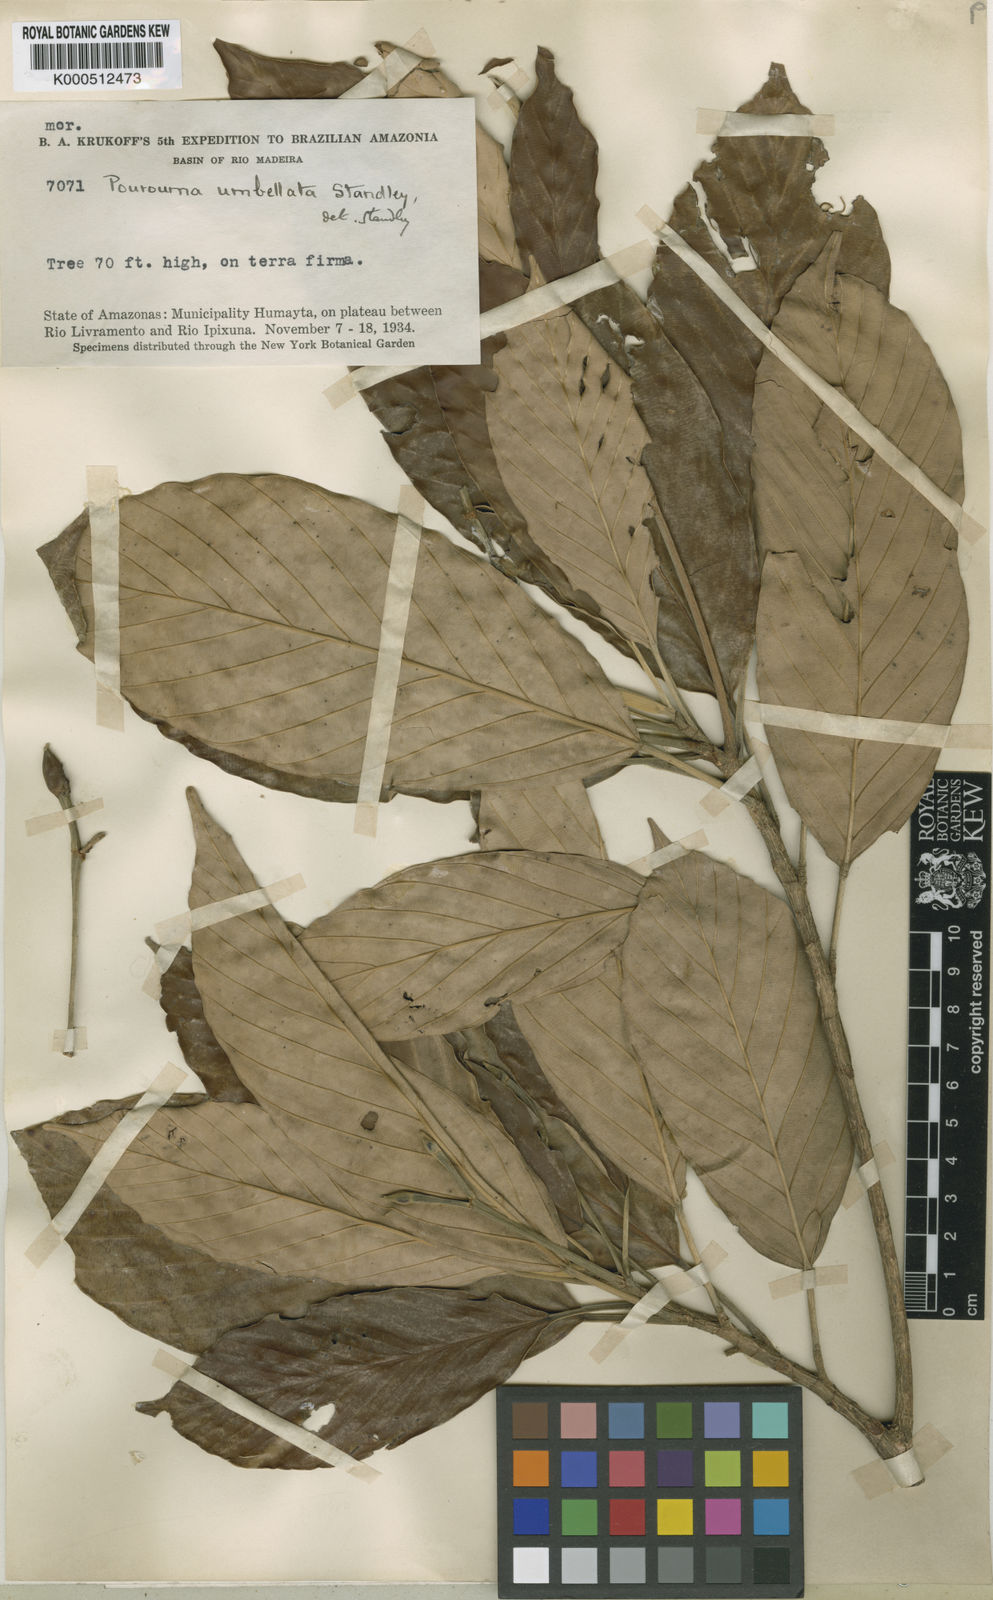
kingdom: Plantae
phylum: Tracheophyta
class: Magnoliopsida
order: Rosales
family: Urticaceae
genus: Pourouma
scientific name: Pourouma minor
